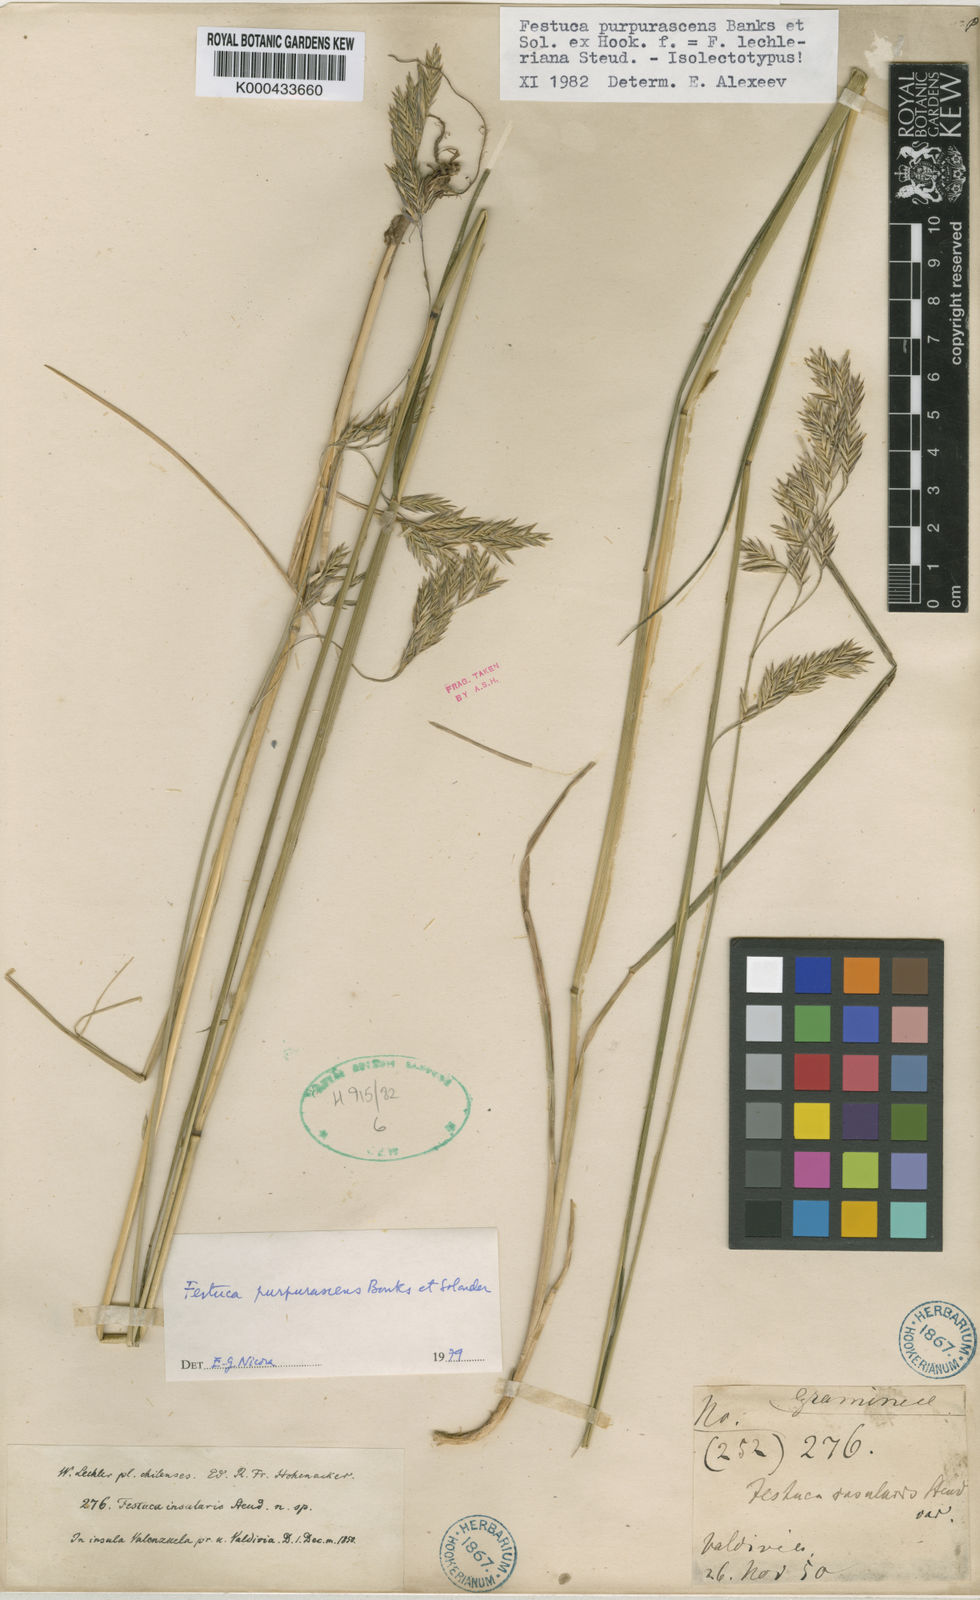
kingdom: Plantae
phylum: Tracheophyta
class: Liliopsida
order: Poales
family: Poaceae
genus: Festuca
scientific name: Festuca purpurascens
